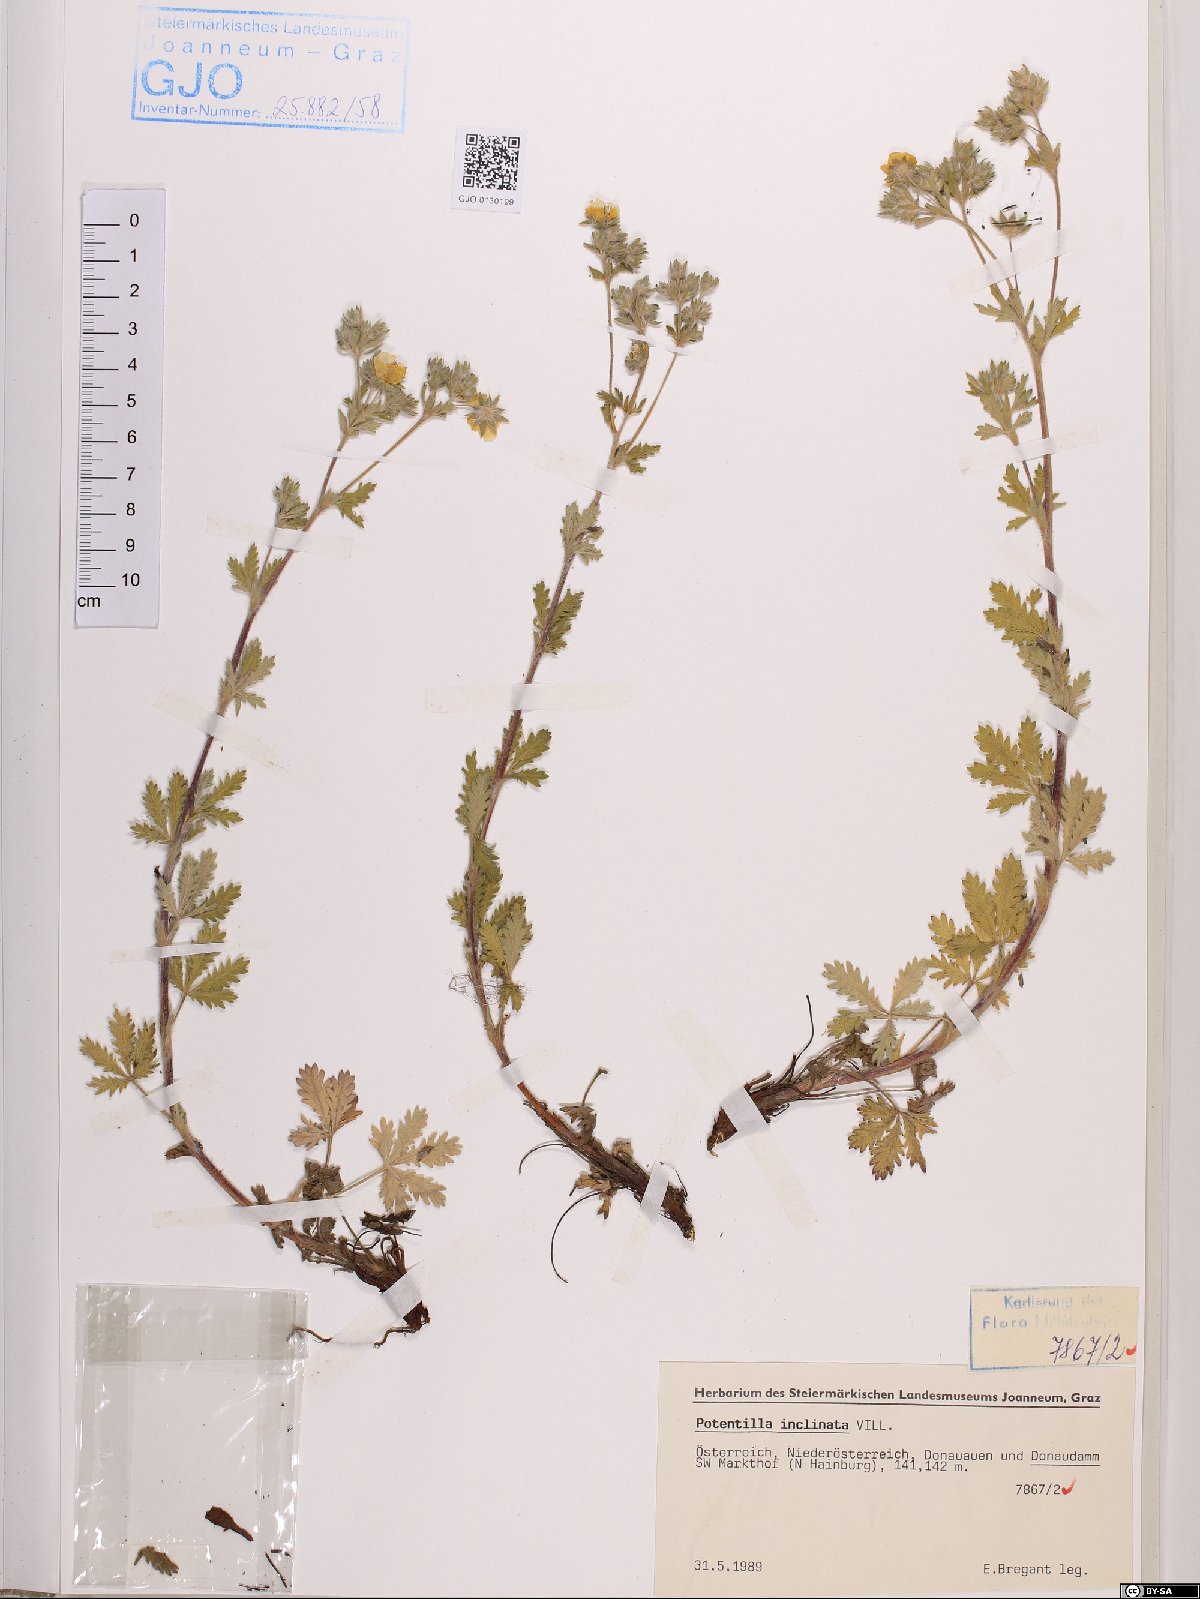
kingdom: Plantae
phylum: Tracheophyta
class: Magnoliopsida
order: Rosales
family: Rosaceae
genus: Potentilla
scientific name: Potentilla inclinata
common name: Grey cinquefoil
